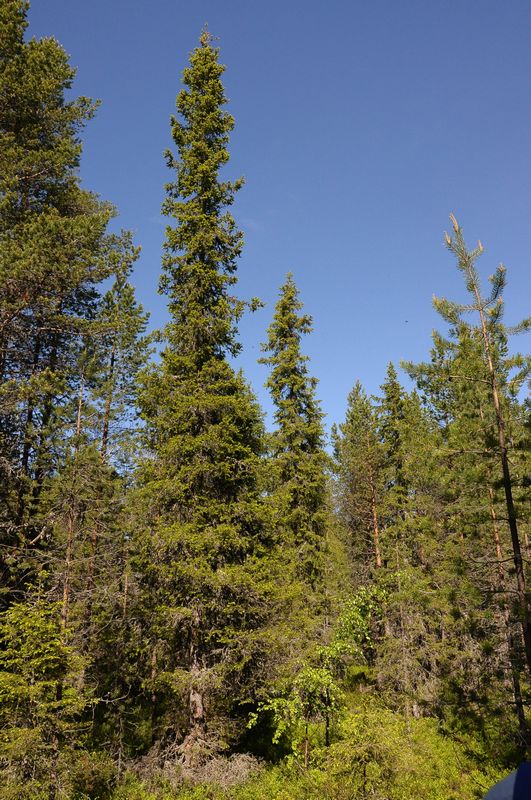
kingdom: Plantae
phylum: Tracheophyta
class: Pinopsida
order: Pinales
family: Pinaceae
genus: Picea
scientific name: Picea obovata
